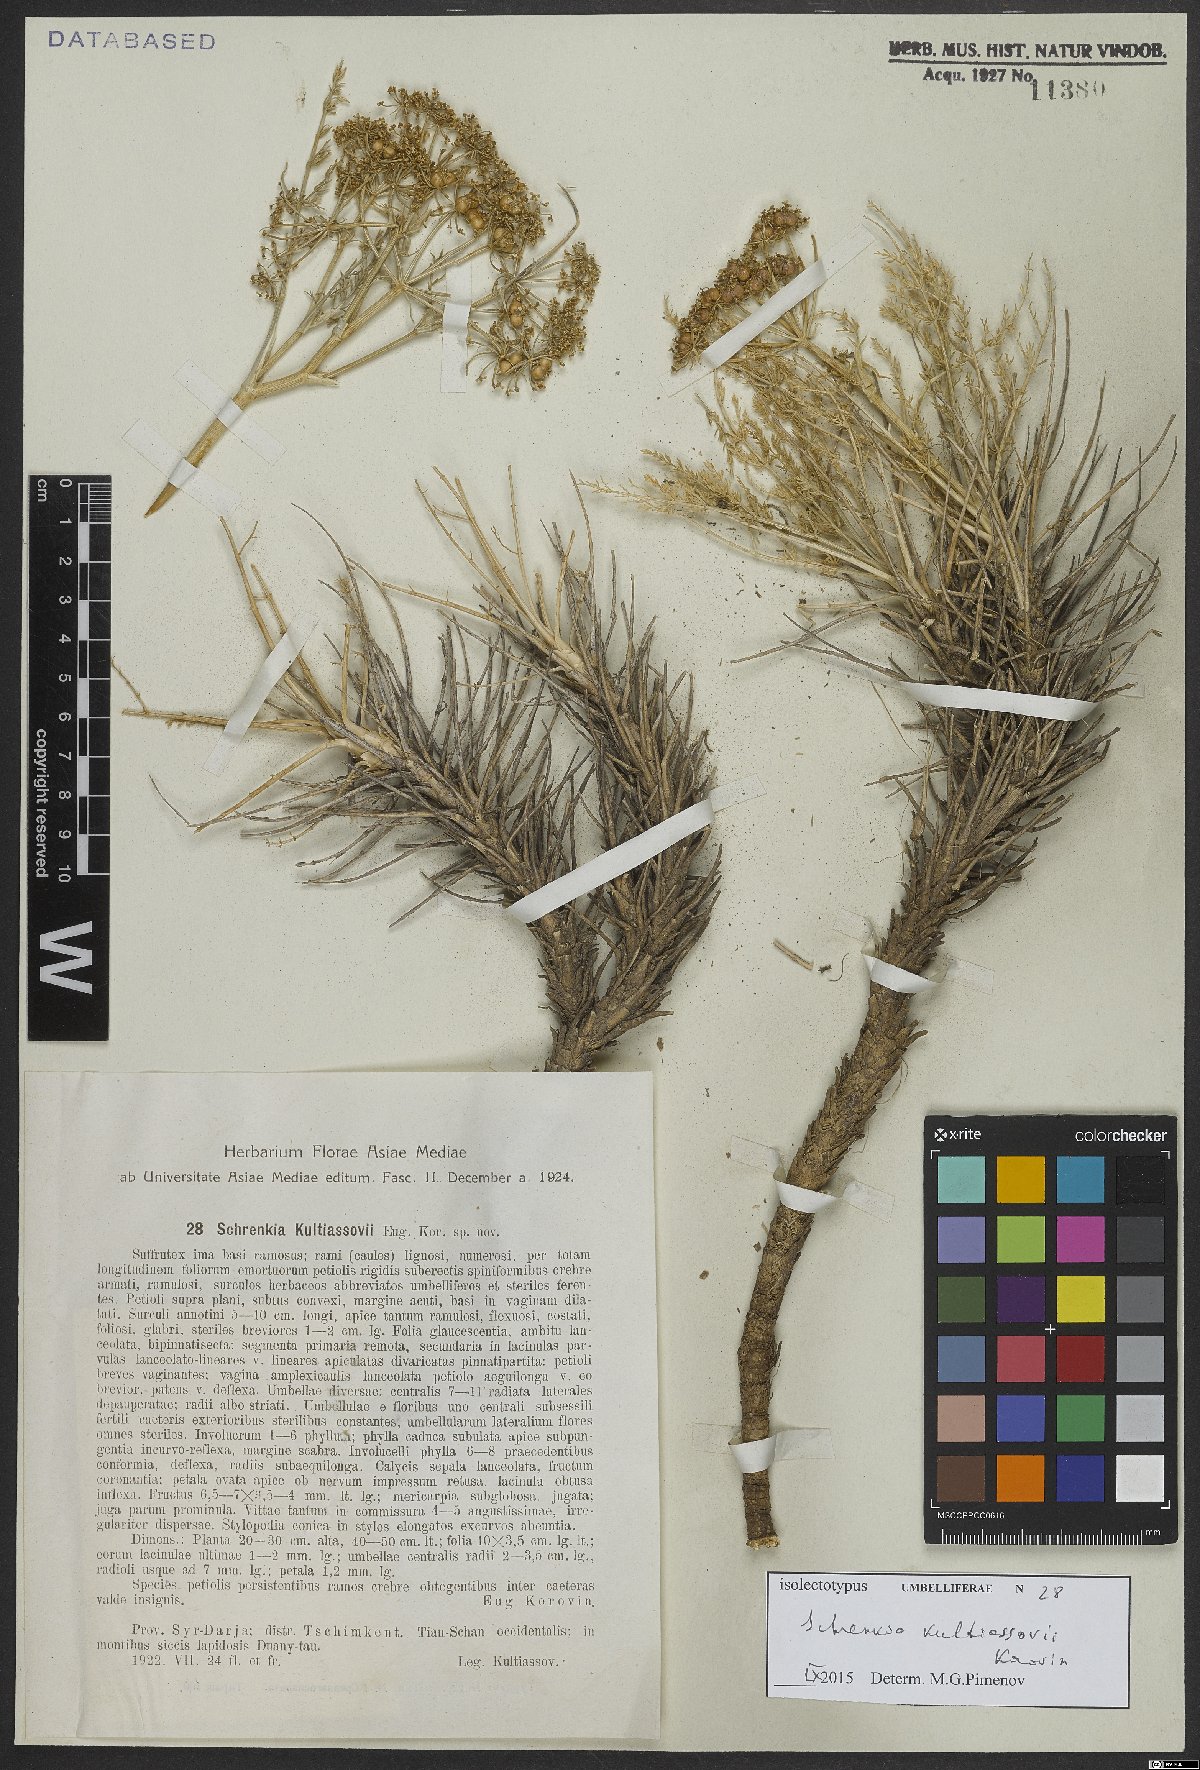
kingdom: Plantae
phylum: Tracheophyta
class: Magnoliopsida
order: Apiales
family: Apiaceae
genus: Schrenkia
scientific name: Schrenkia kultiassovii
